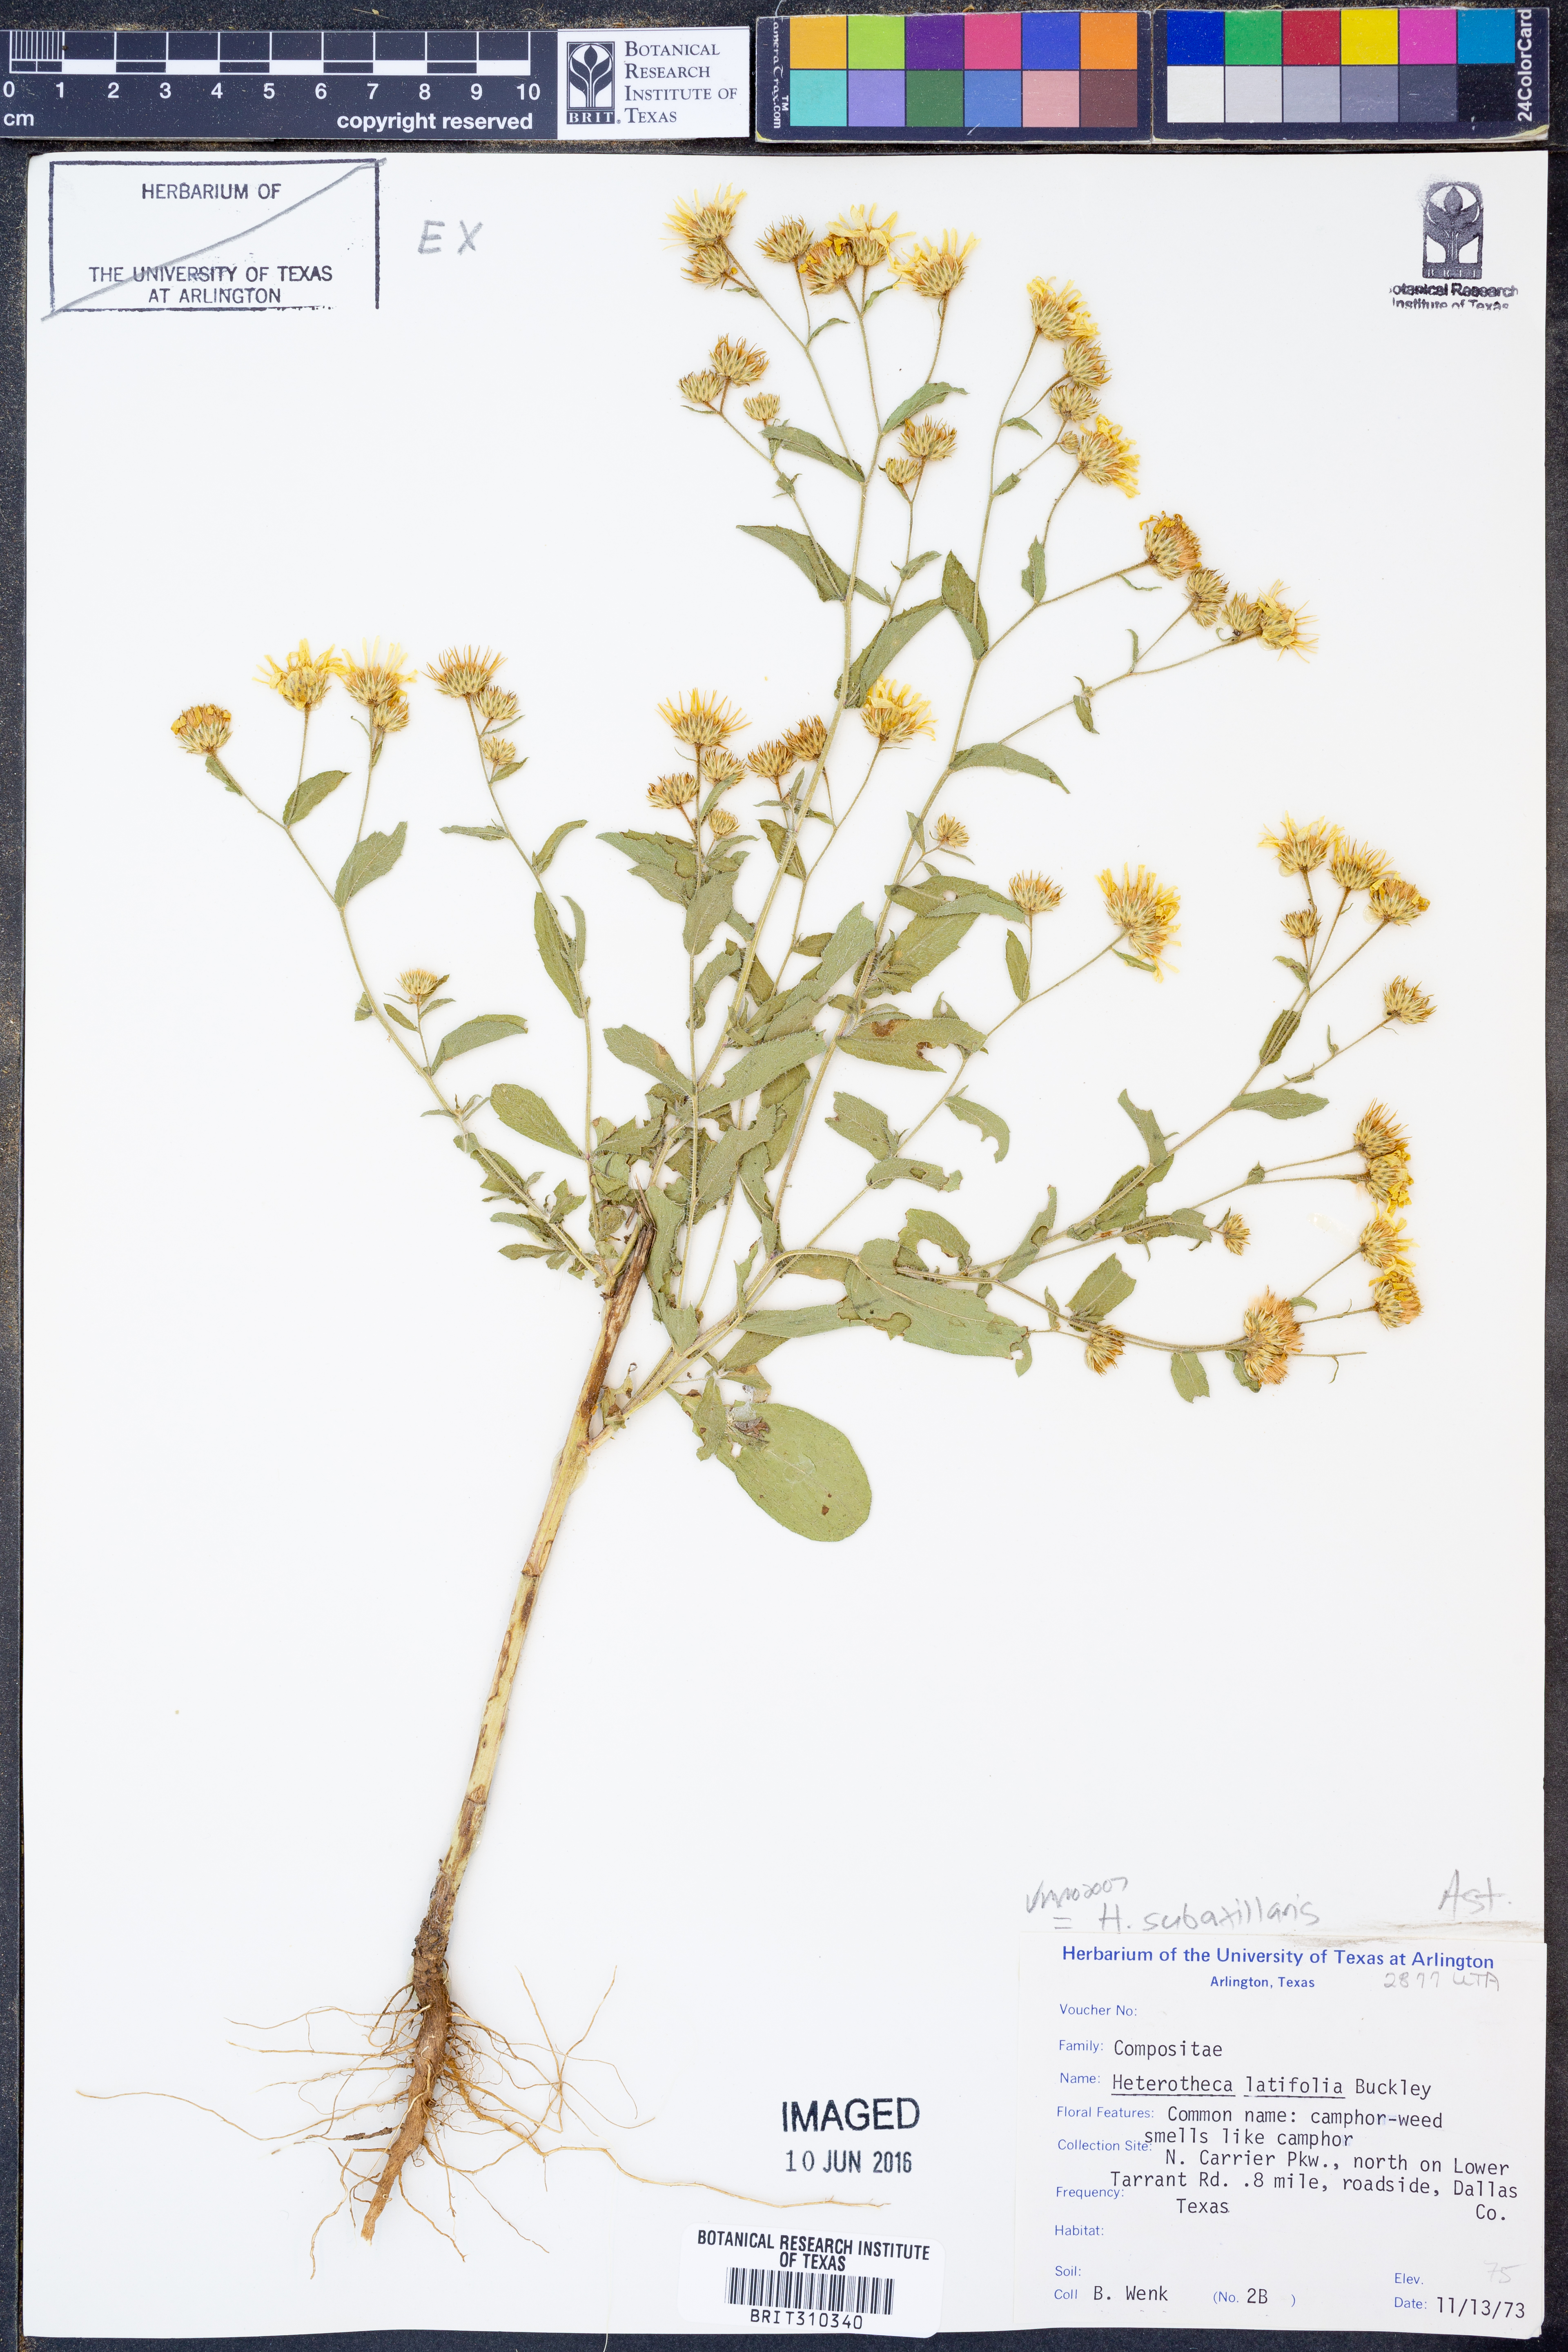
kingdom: Plantae
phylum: Tracheophyta
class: Magnoliopsida
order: Asterales
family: Asteraceae
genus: Heterotheca
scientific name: Heterotheca subaxillaris
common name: Camphorweed
